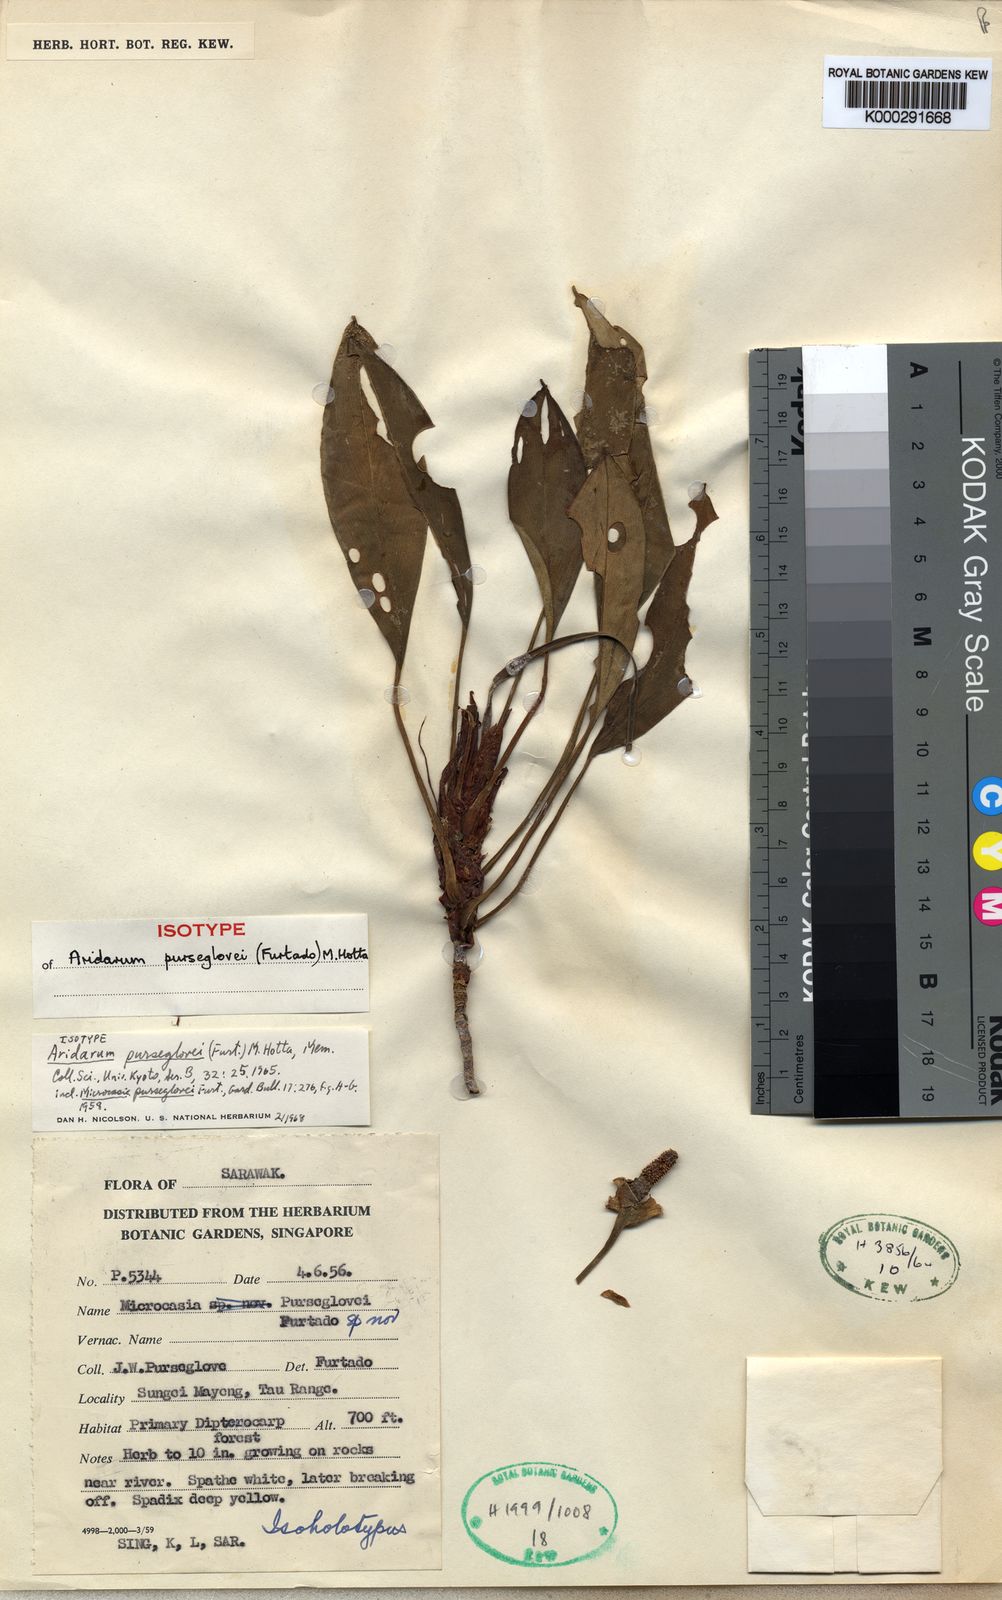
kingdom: Plantae
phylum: Tracheophyta
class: Liliopsida
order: Alismatales
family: Araceae
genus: Burttianthus
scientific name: Burttianthus purseglovei
